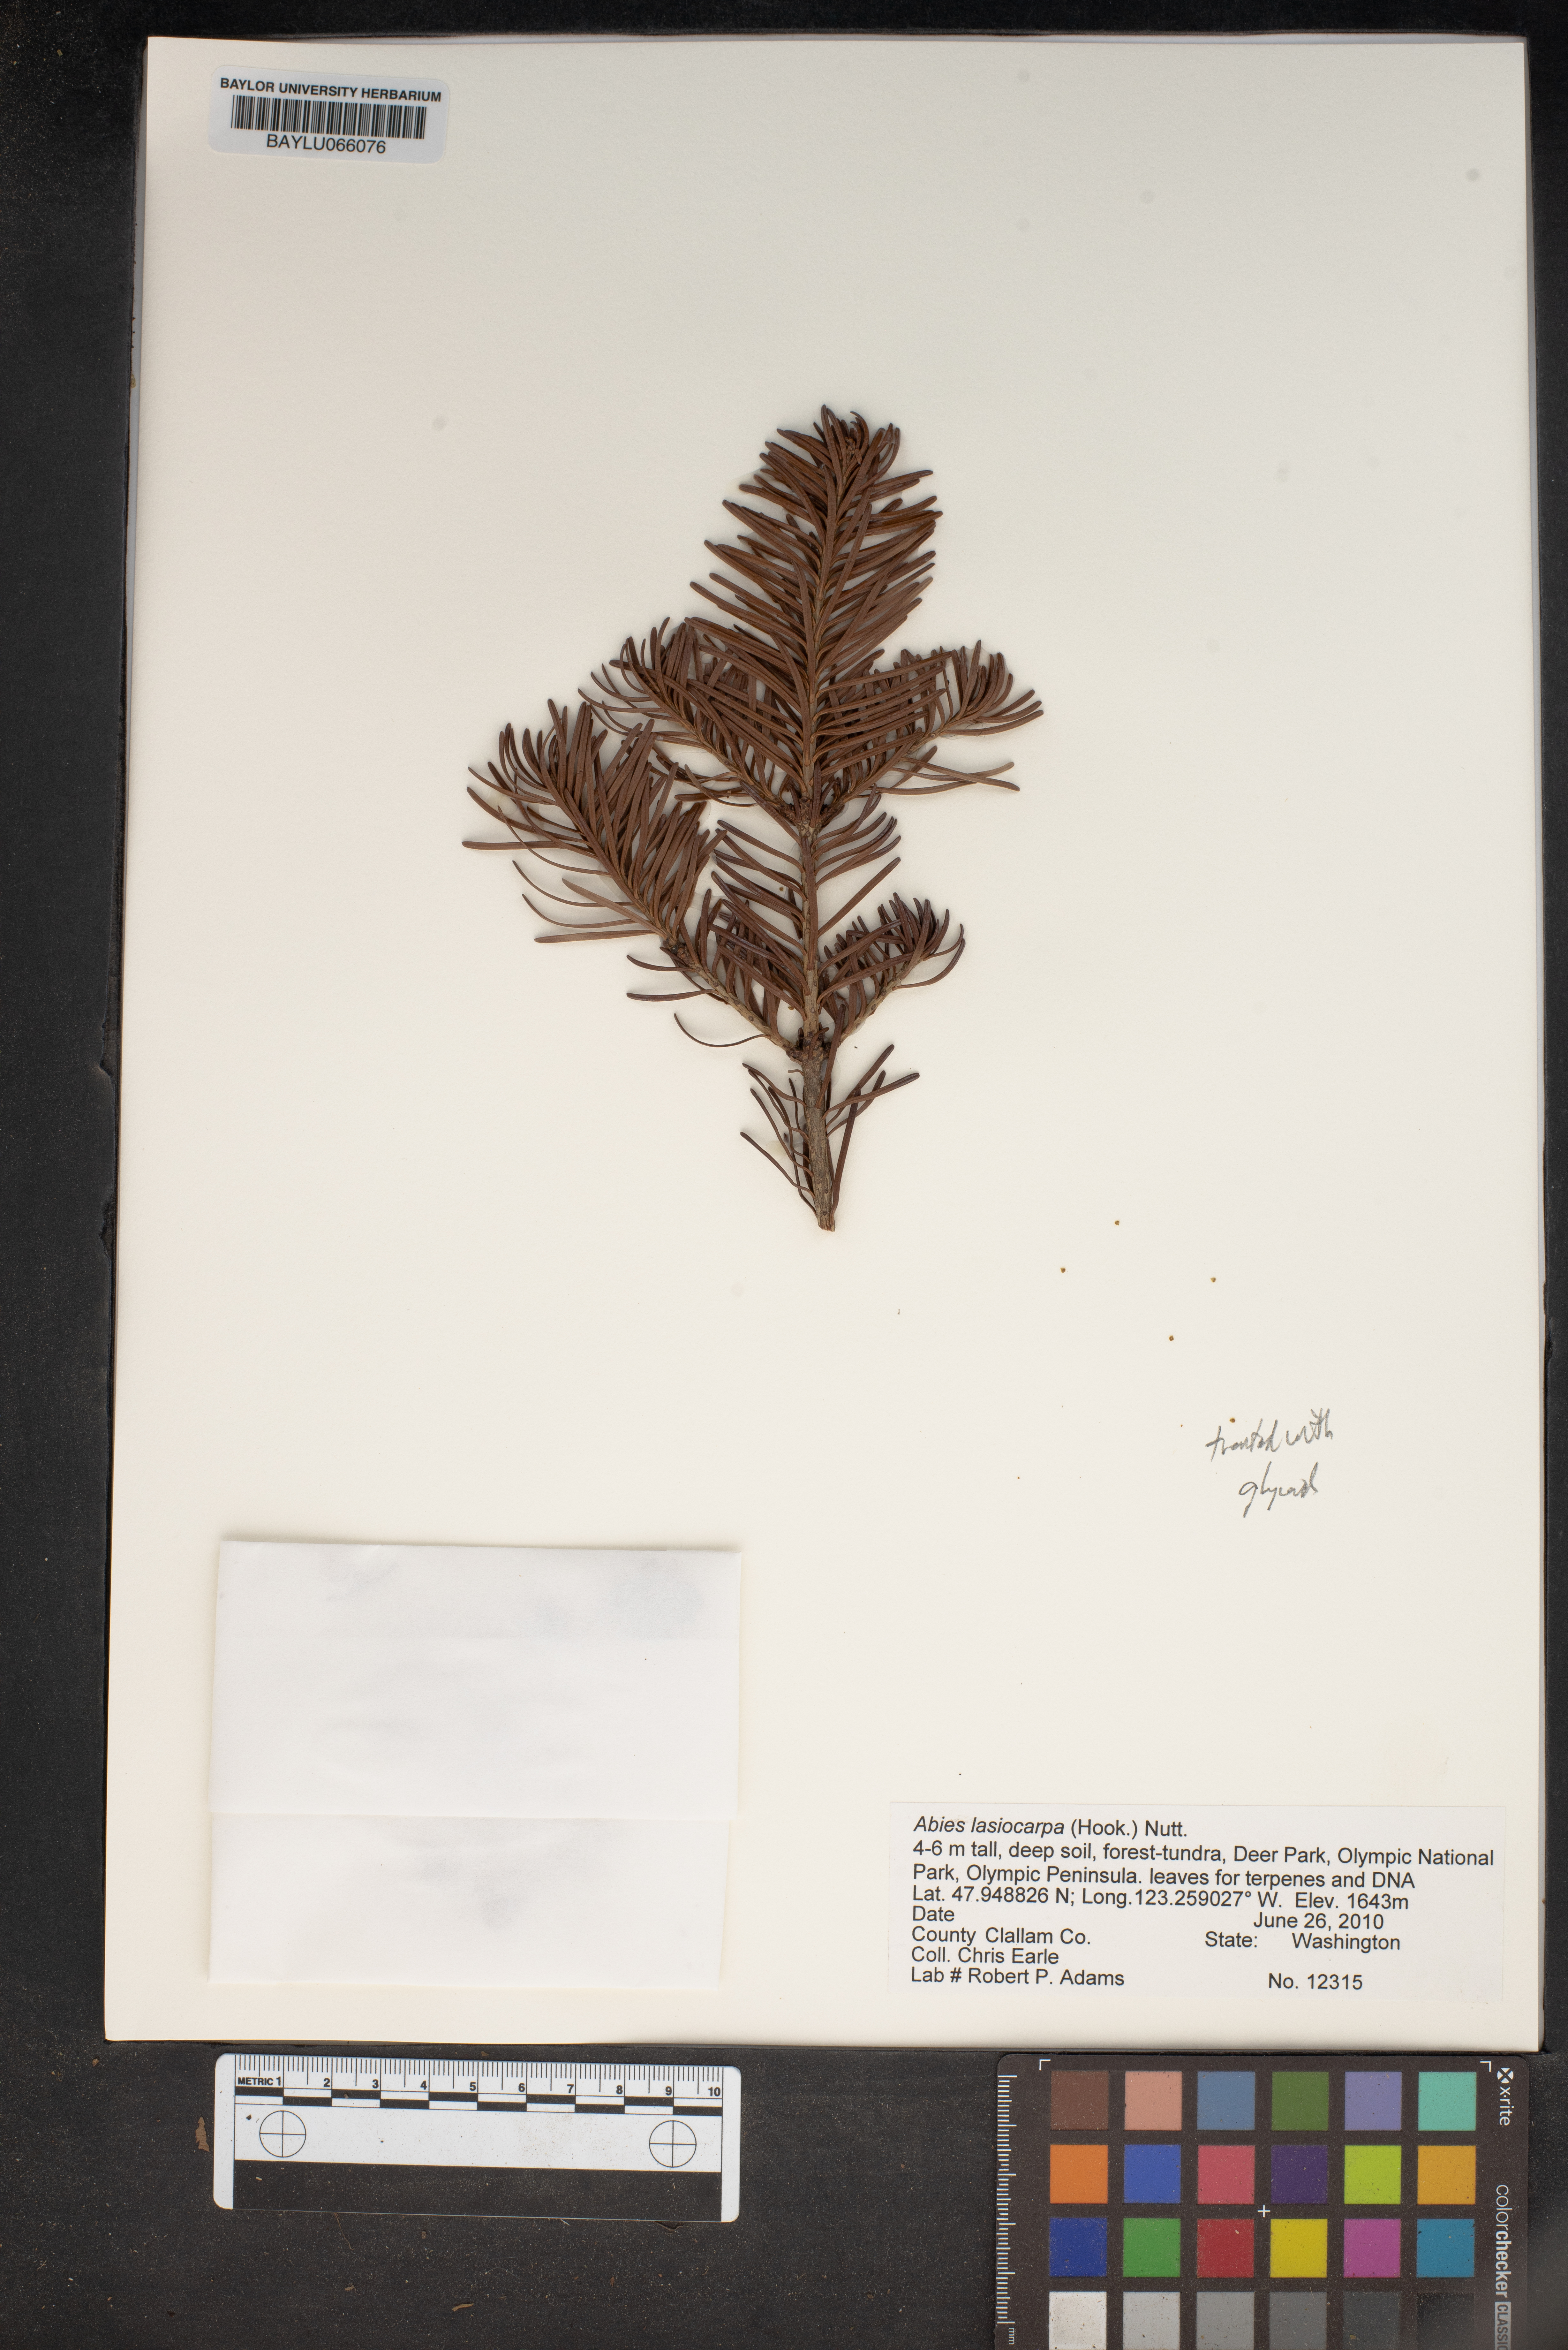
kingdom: Plantae
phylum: Tracheophyta
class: Pinopsida
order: Pinales
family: Pinaceae
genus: Abies
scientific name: Abies lasiocarpa
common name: Subalpine fir
